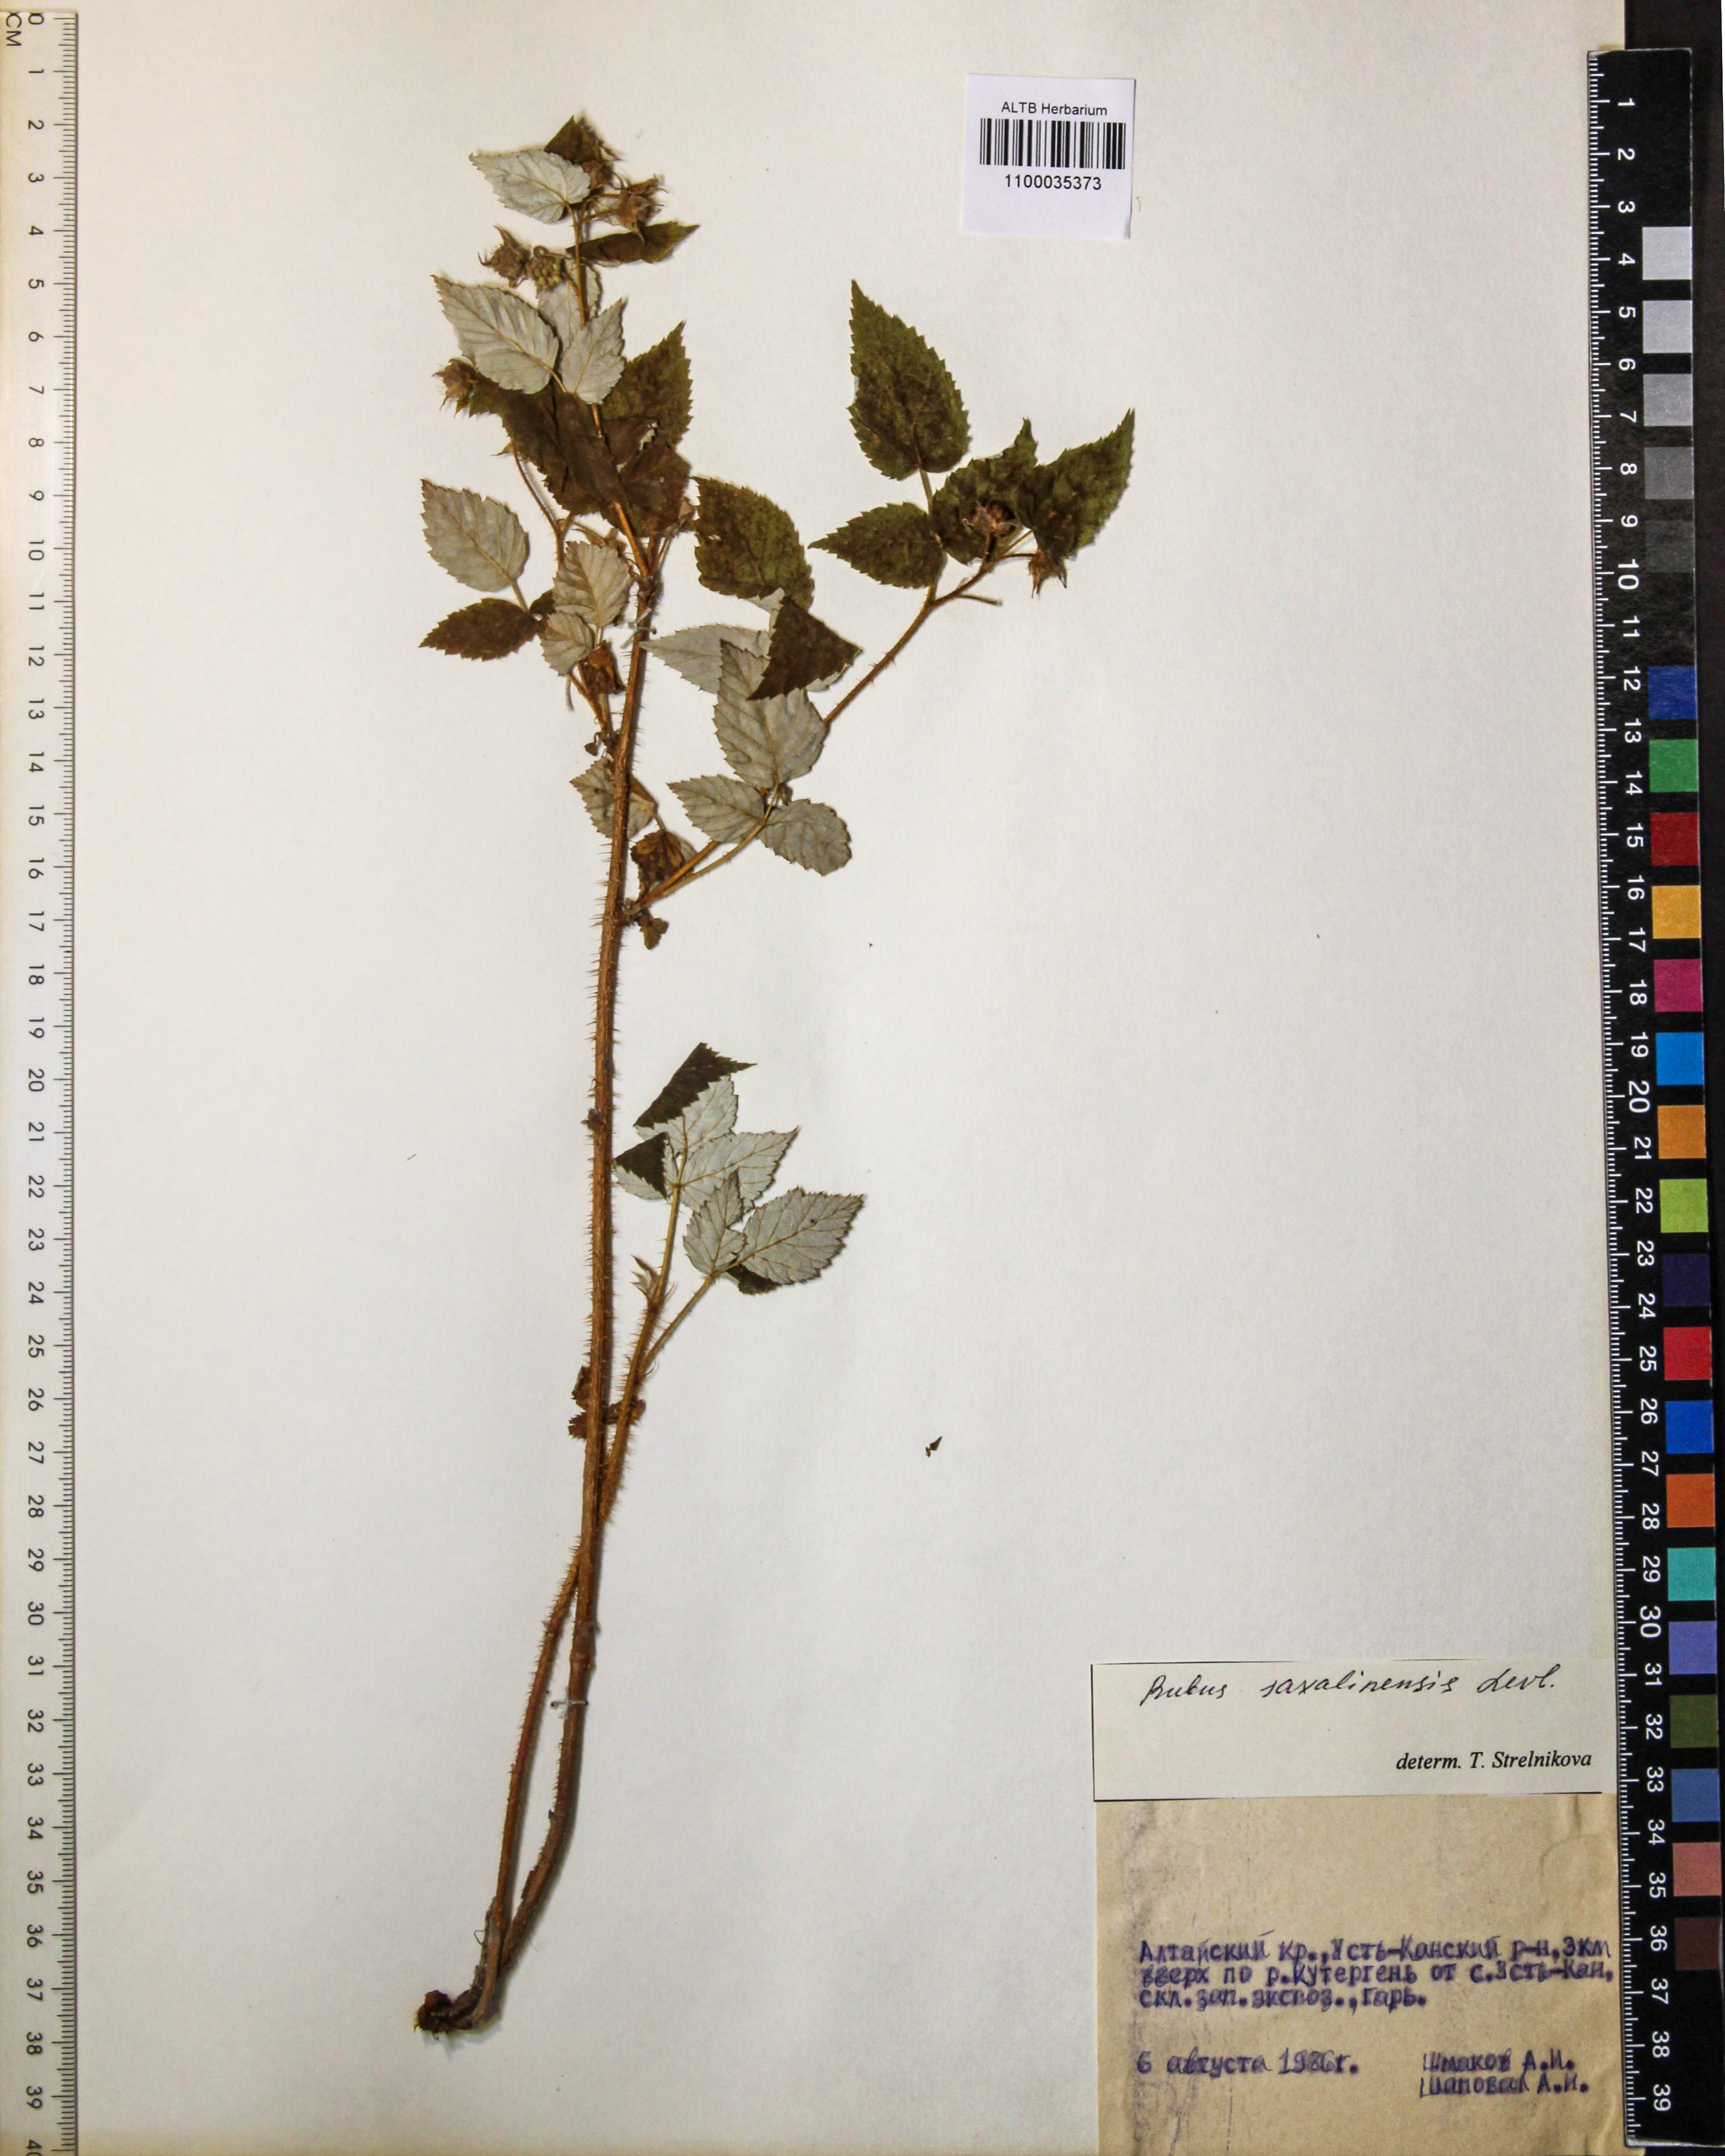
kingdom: Plantae
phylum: Tracheophyta
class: Magnoliopsida
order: Rosales
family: Rosaceae
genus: Rubus
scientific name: Rubus sachalinensis
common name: Red raspberry
